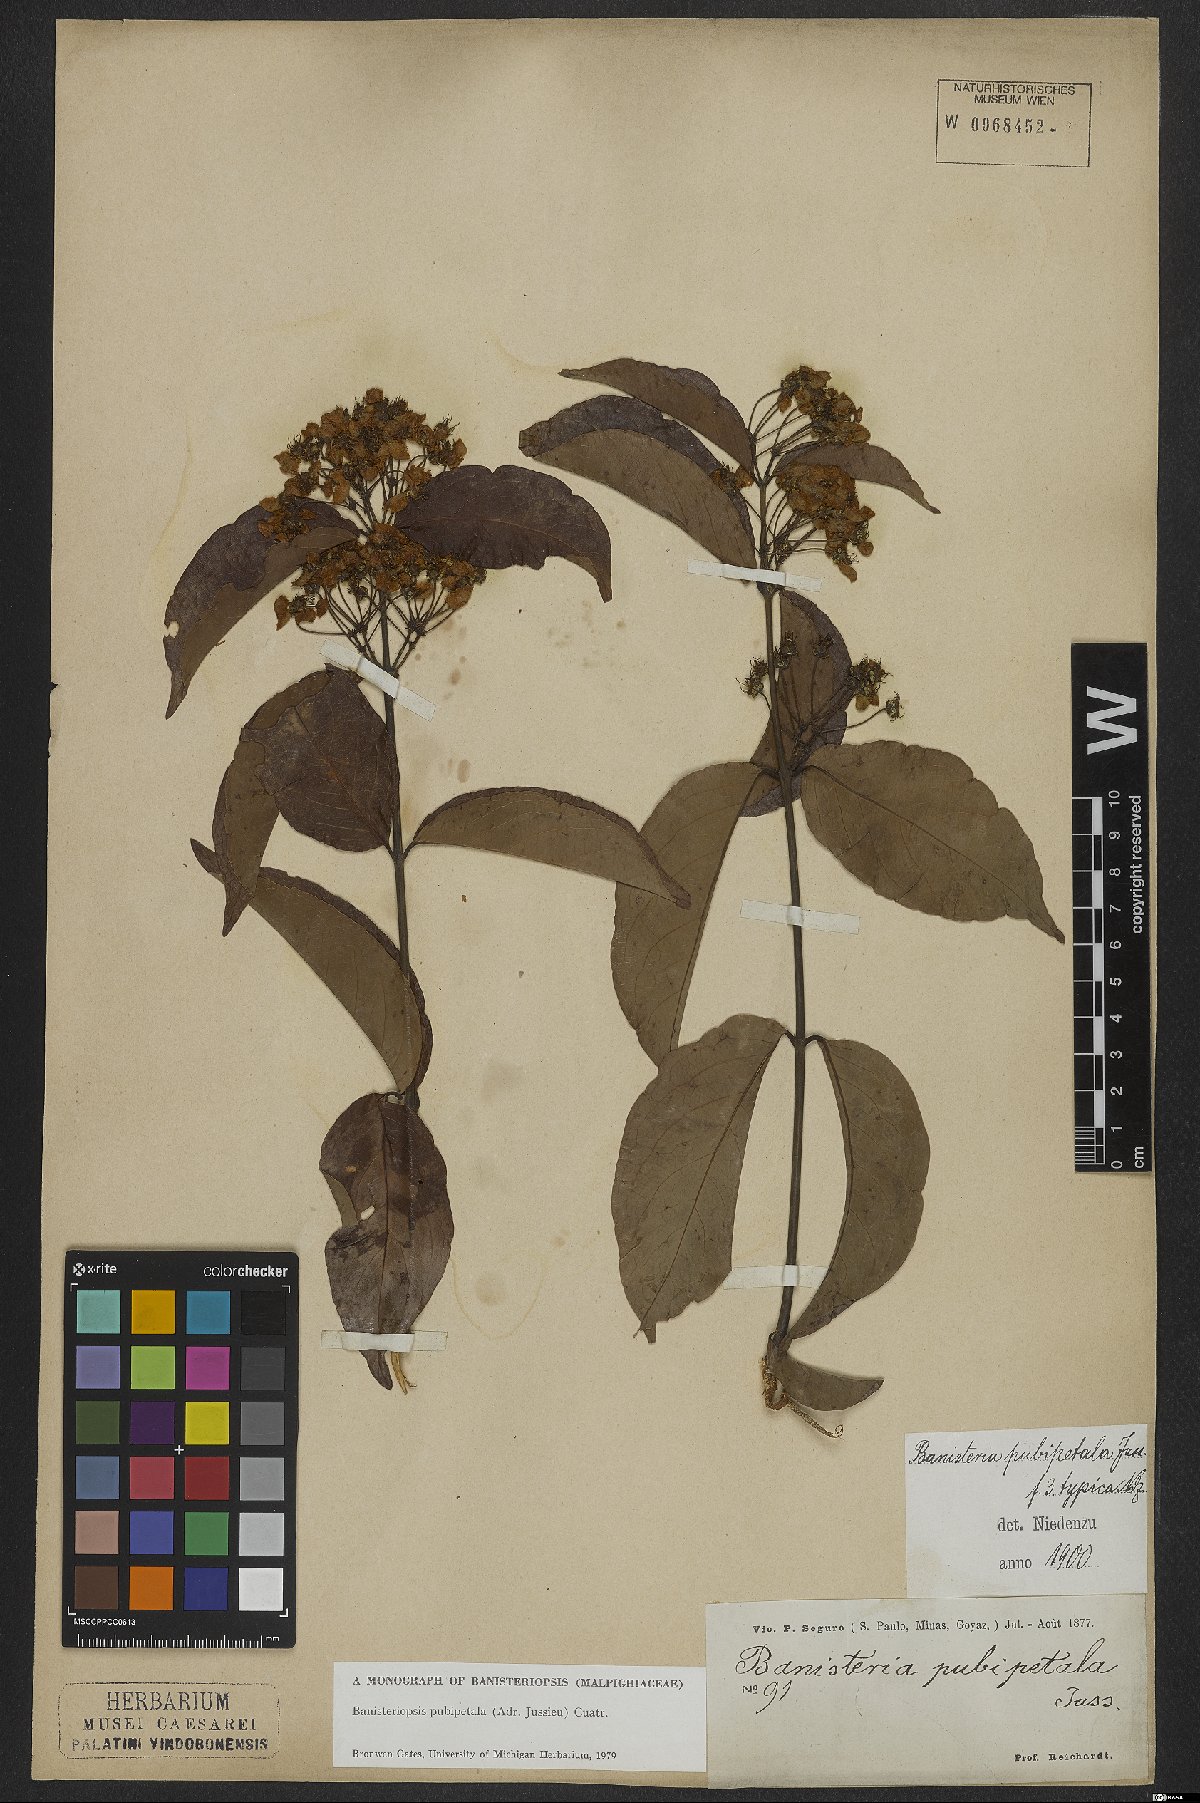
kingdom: Plantae
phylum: Tracheophyta
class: Magnoliopsida
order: Malpighiales
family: Malpighiaceae
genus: Diplopterys
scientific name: Diplopterys pubipetala
